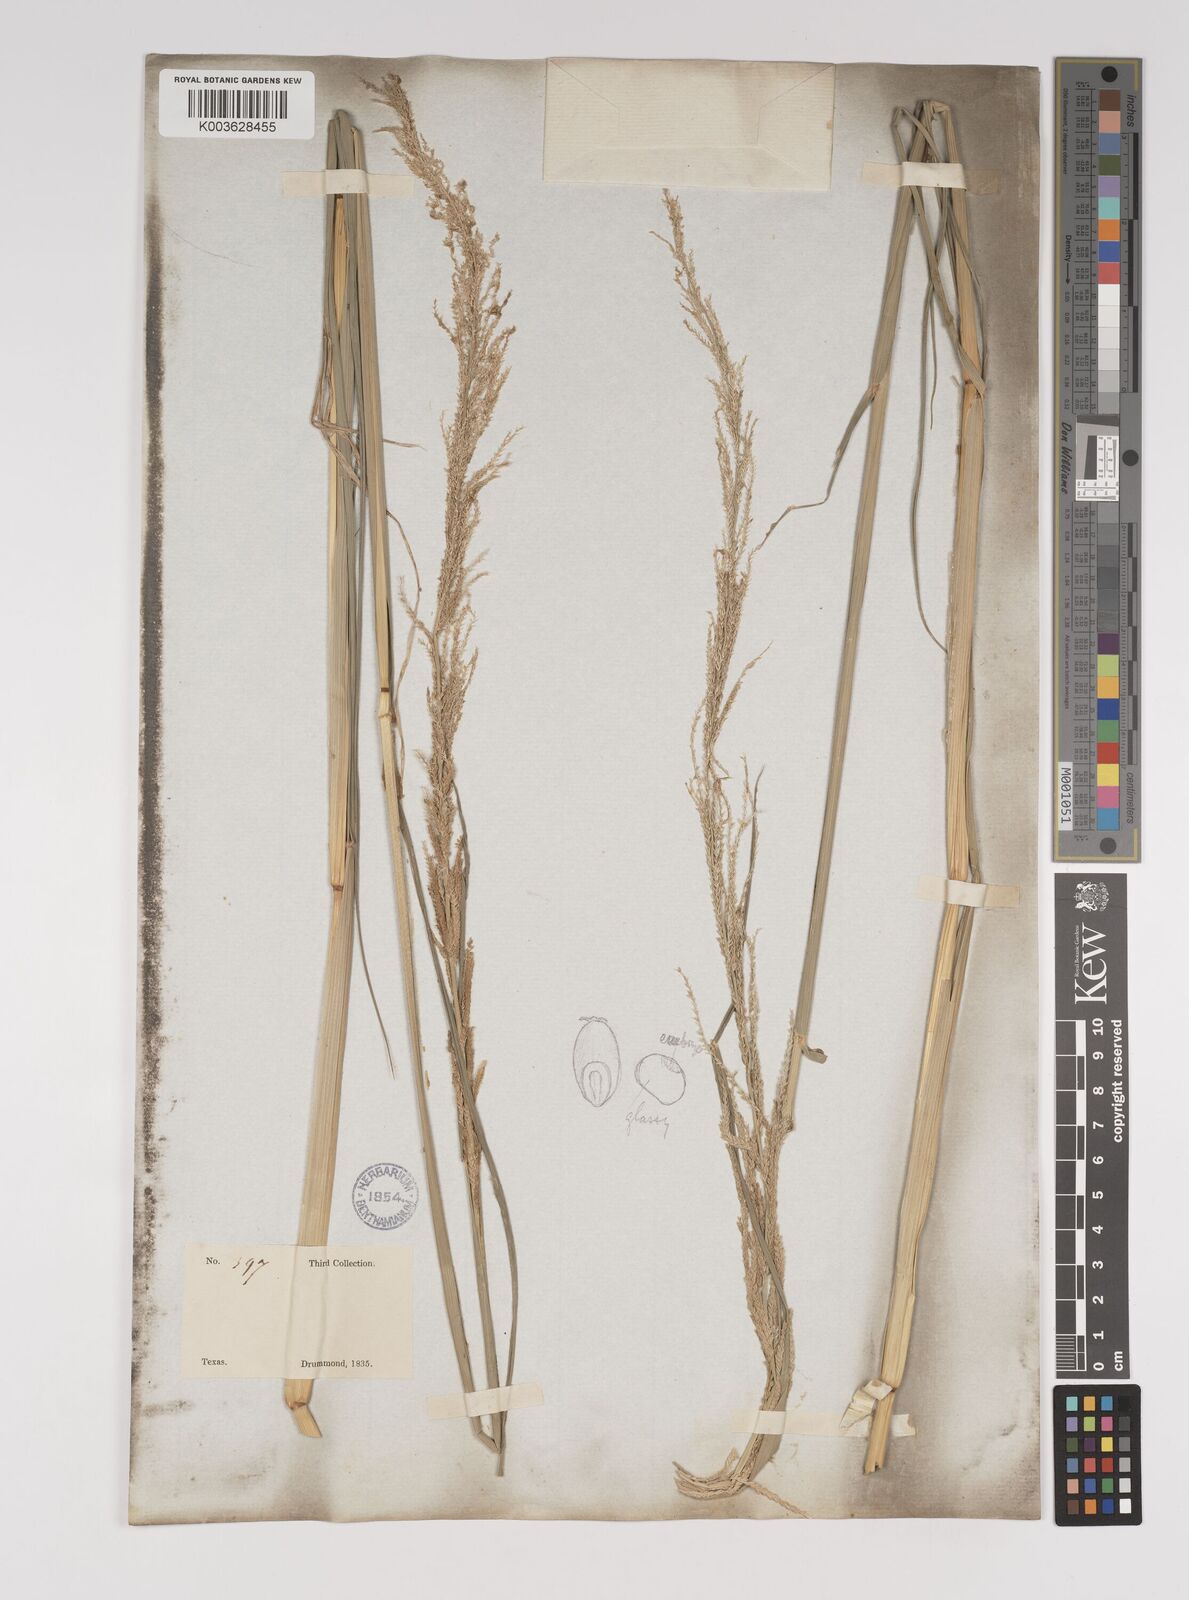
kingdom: Plantae
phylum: Tracheophyta
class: Liliopsida
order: Poales
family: Poaceae
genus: Leptochloa
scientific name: Leptochloa nealleyi
